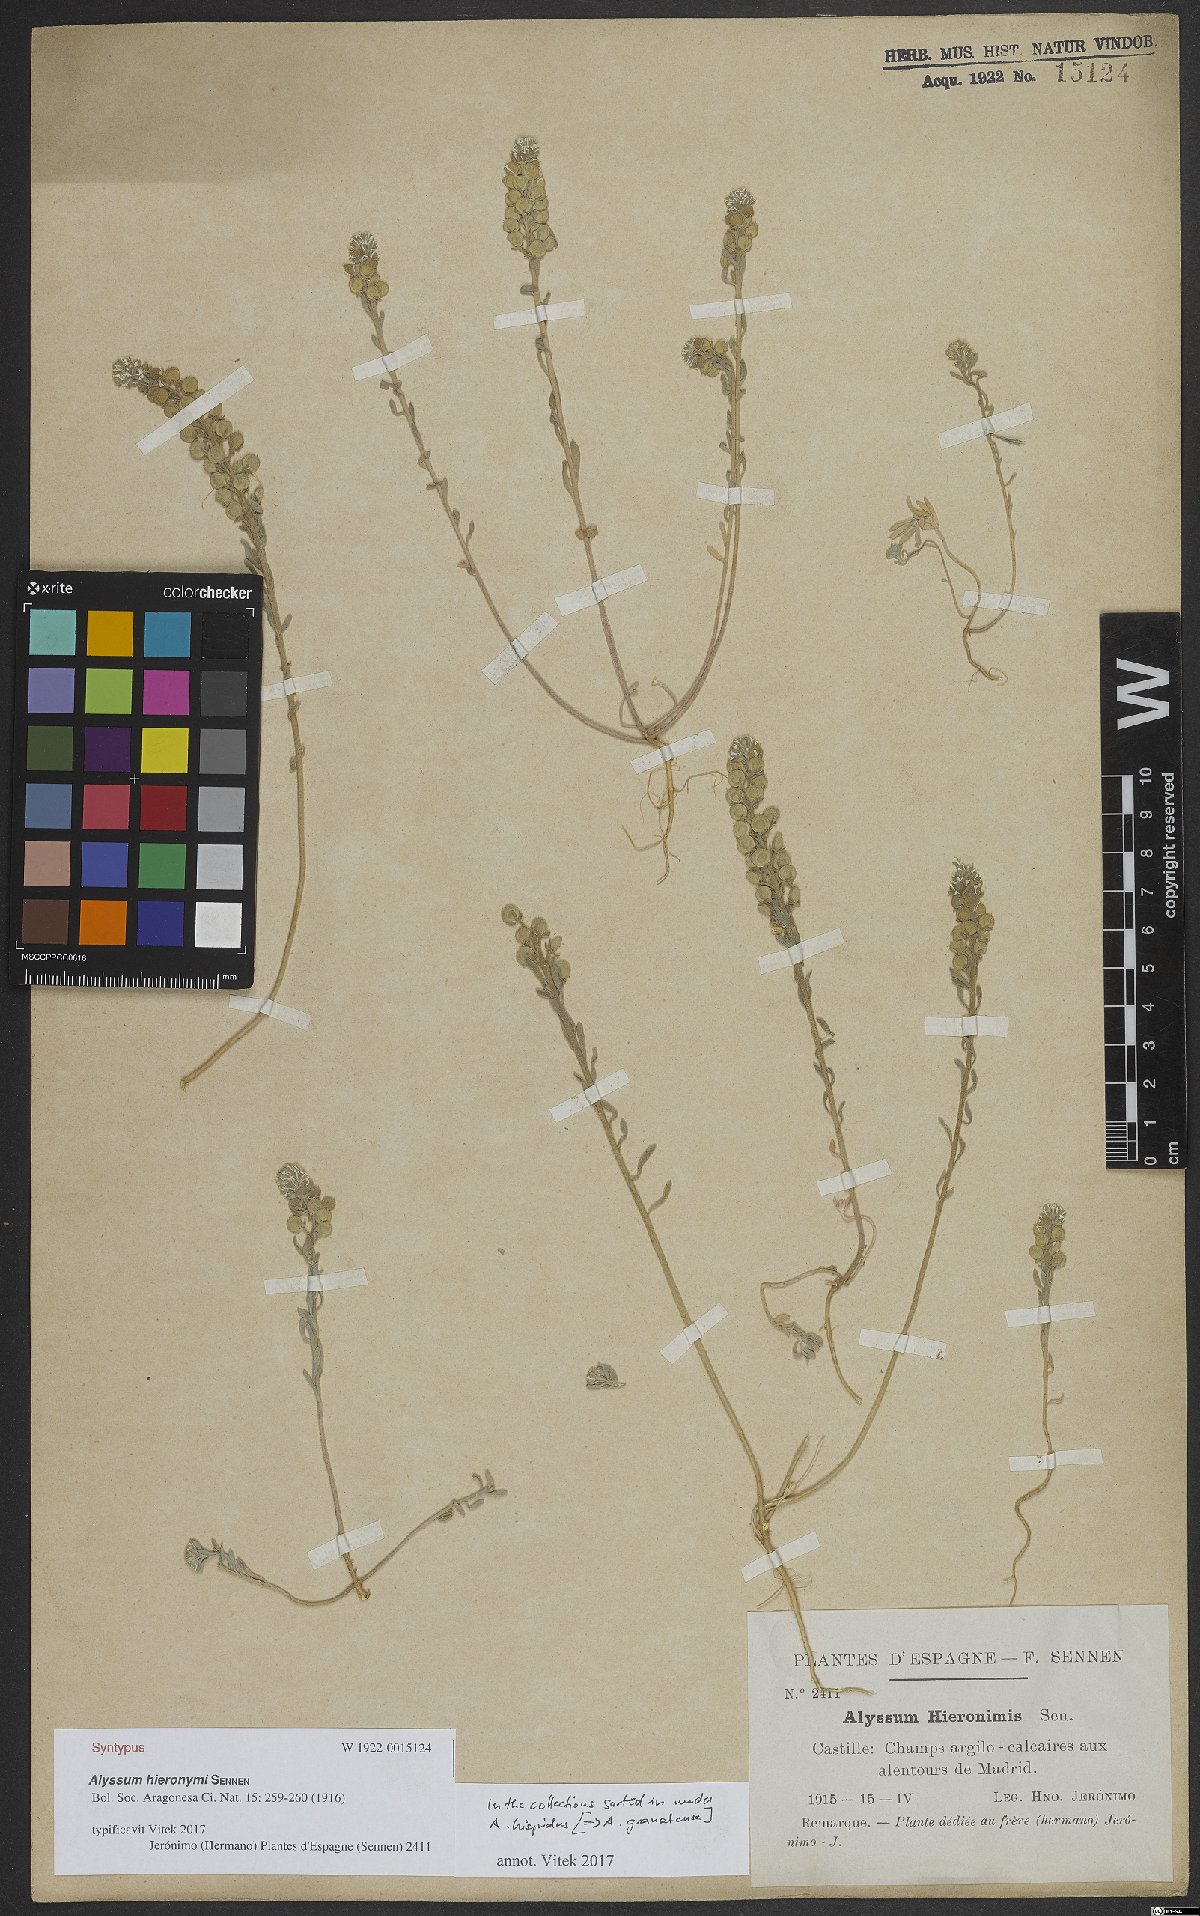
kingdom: Plantae
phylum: Tracheophyta
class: Magnoliopsida
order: Brassicales
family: Brassicaceae
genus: Alyssum
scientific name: Alyssum granatense
